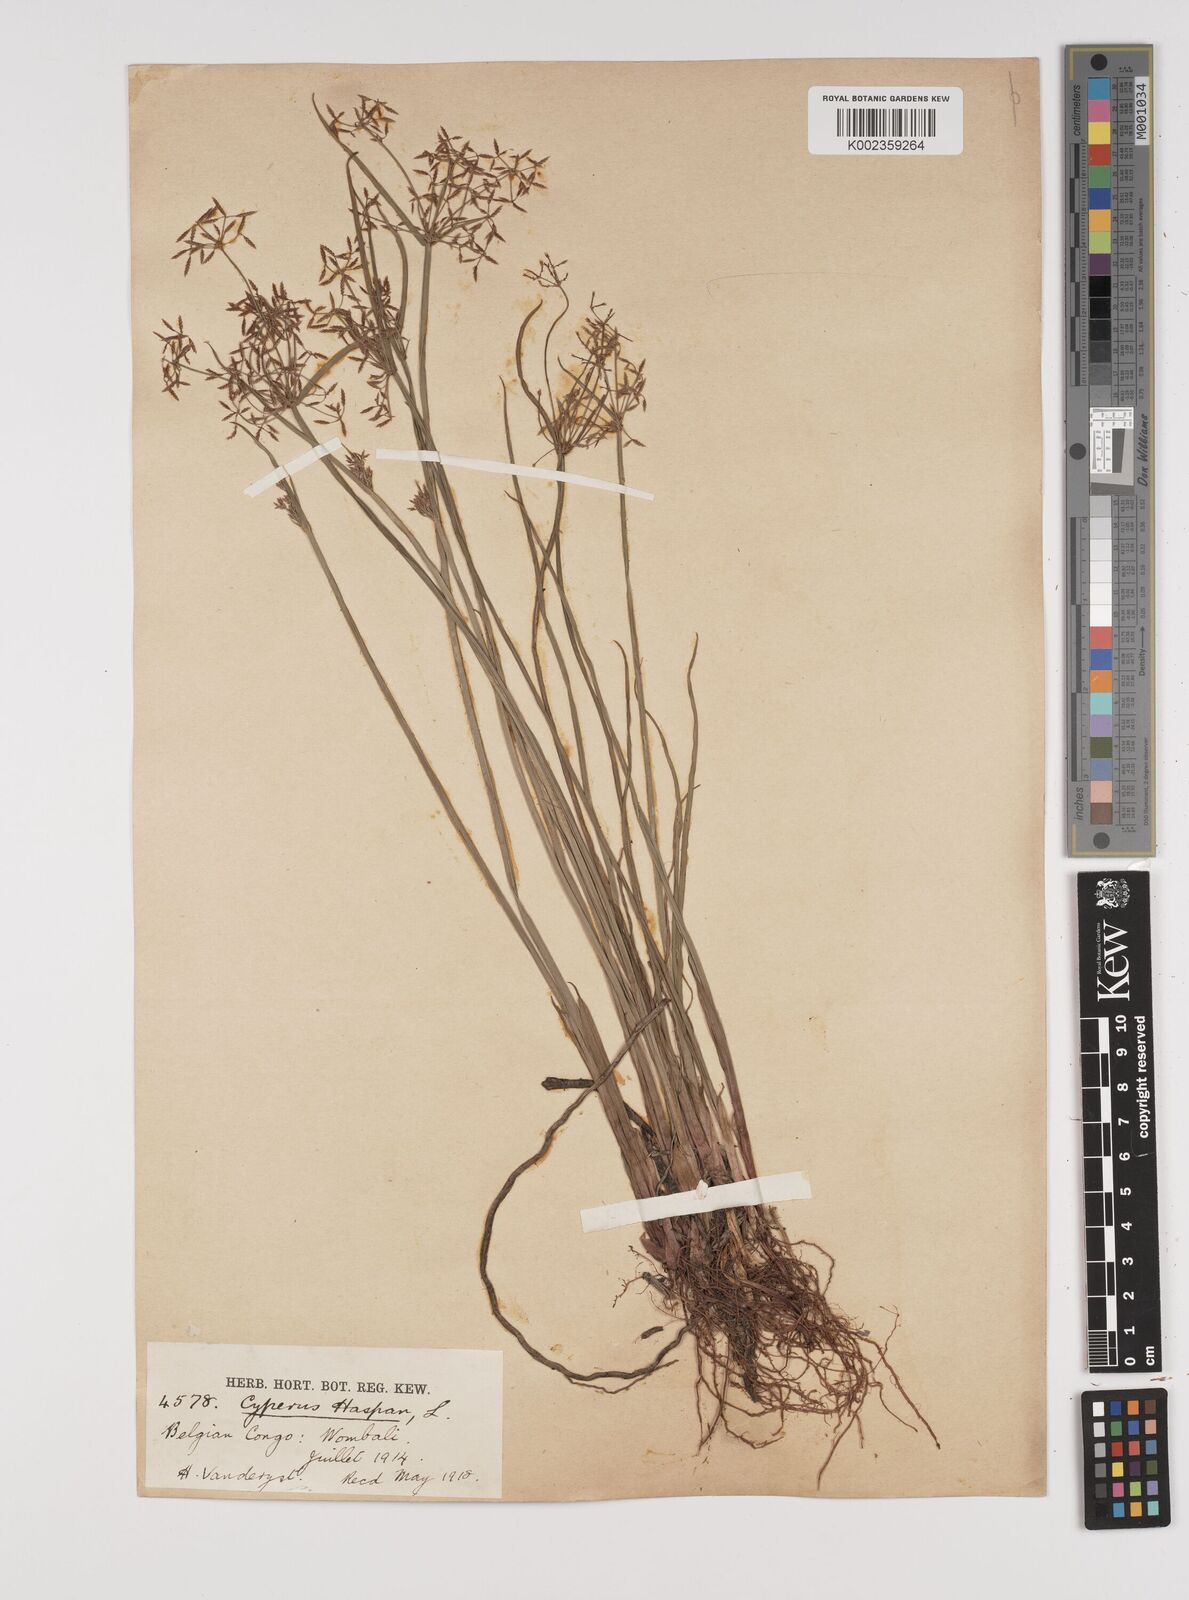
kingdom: Plantae
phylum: Tracheophyta
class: Liliopsida
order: Poales
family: Cyperaceae
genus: Cyperus
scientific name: Cyperus haspan
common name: Haspan flatsedge
